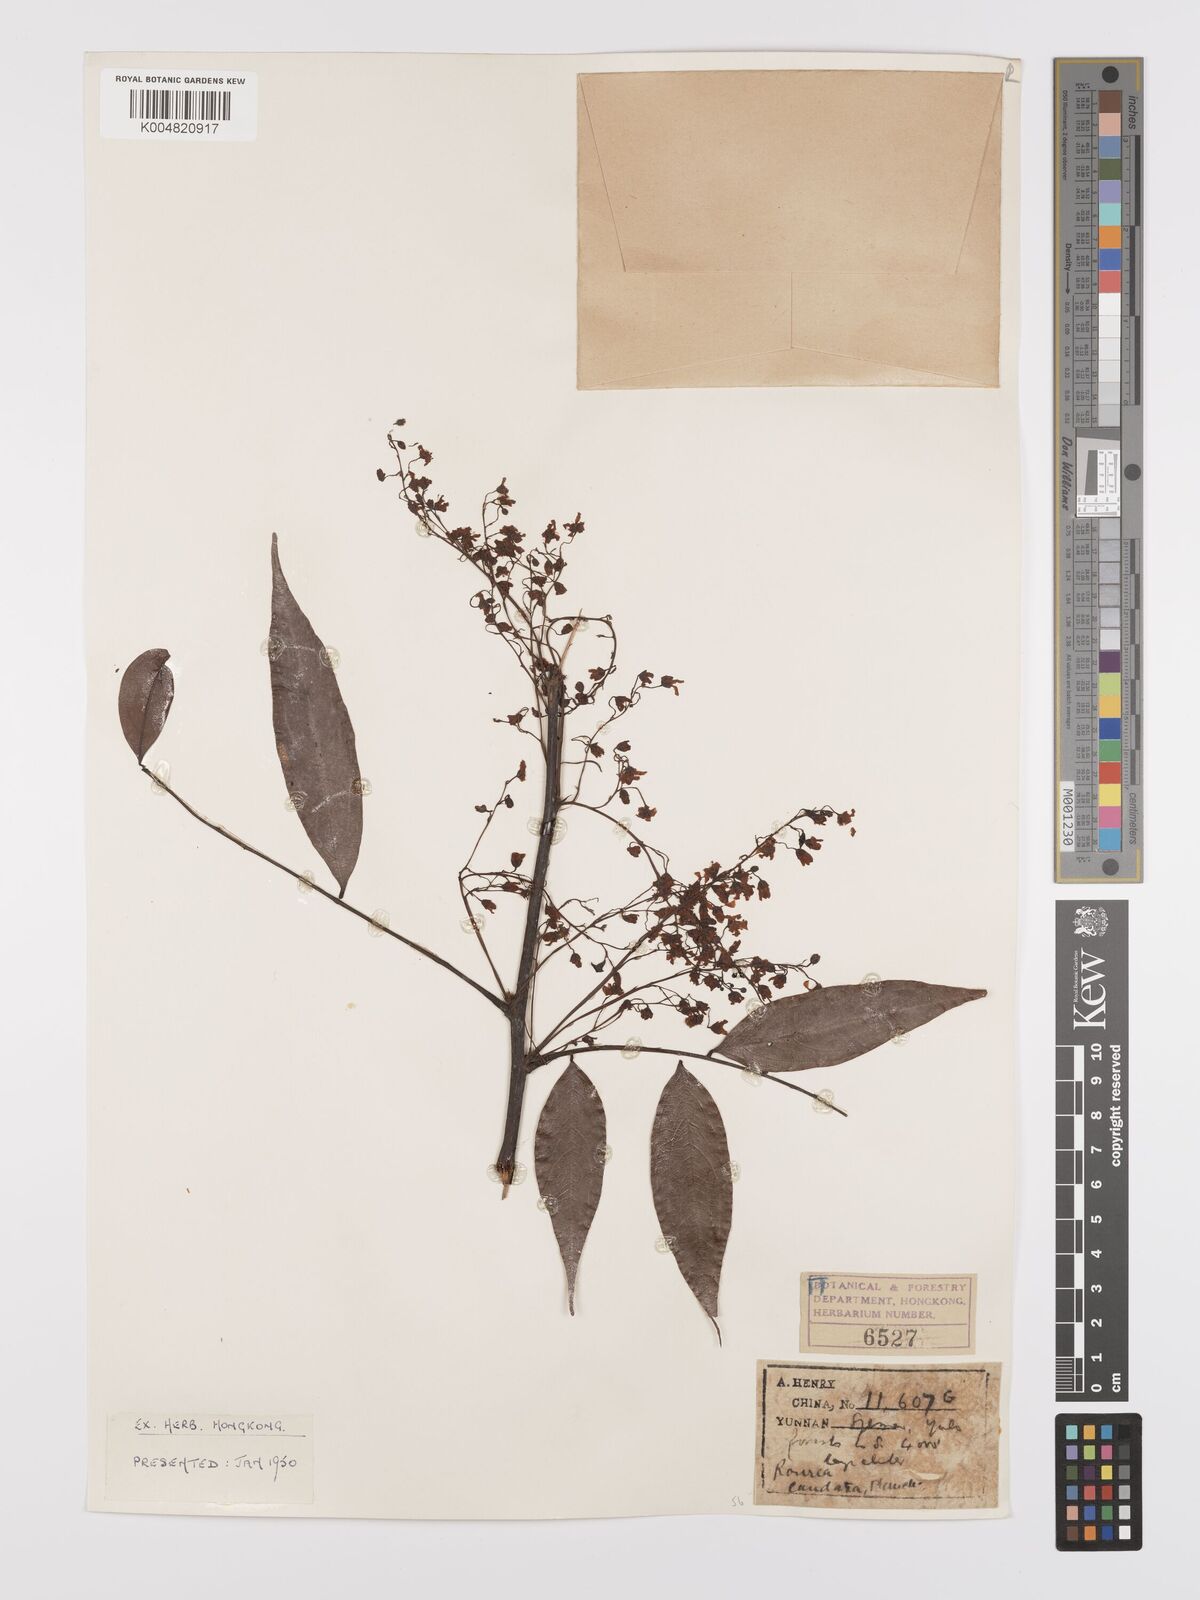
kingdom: Plantae
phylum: Tracheophyta
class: Magnoliopsida
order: Oxalidales
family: Connaraceae
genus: Rourea
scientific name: Rourea caudata
